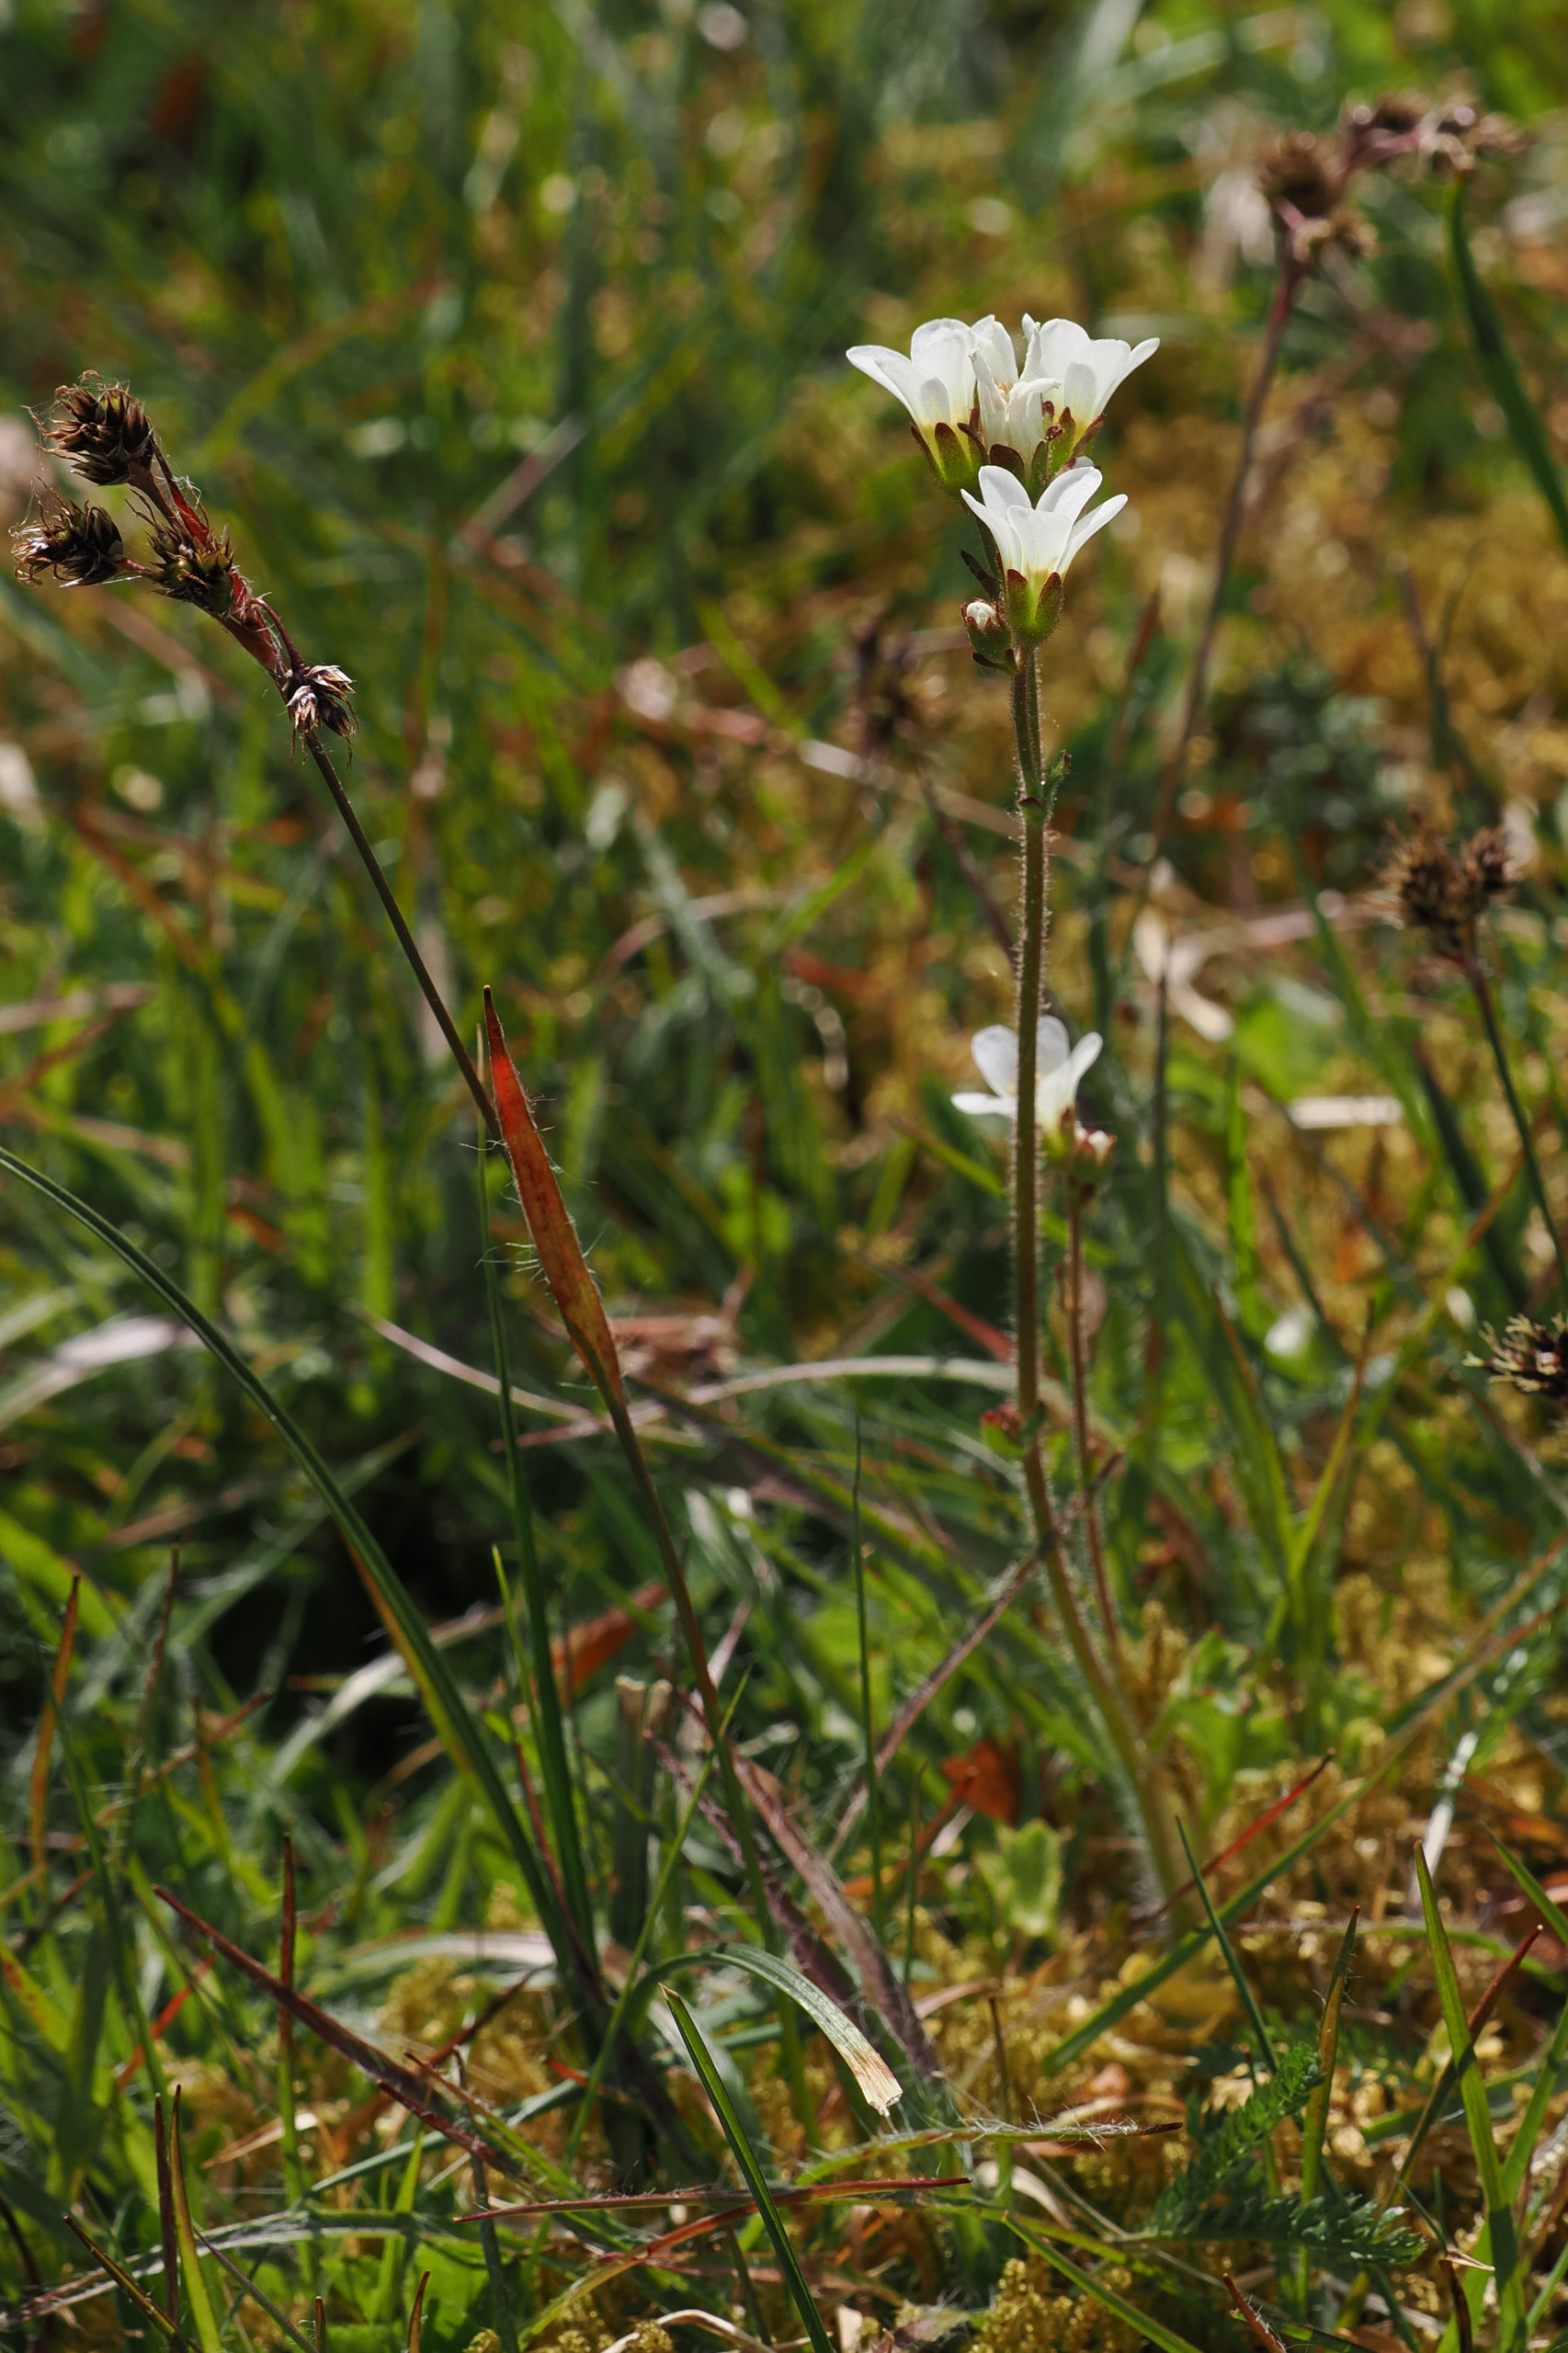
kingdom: Plantae
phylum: Tracheophyta
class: Magnoliopsida
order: Saxifragales
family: Saxifragaceae
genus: Saxifraga
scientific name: Saxifraga granulata
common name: Kornet stenbræk
